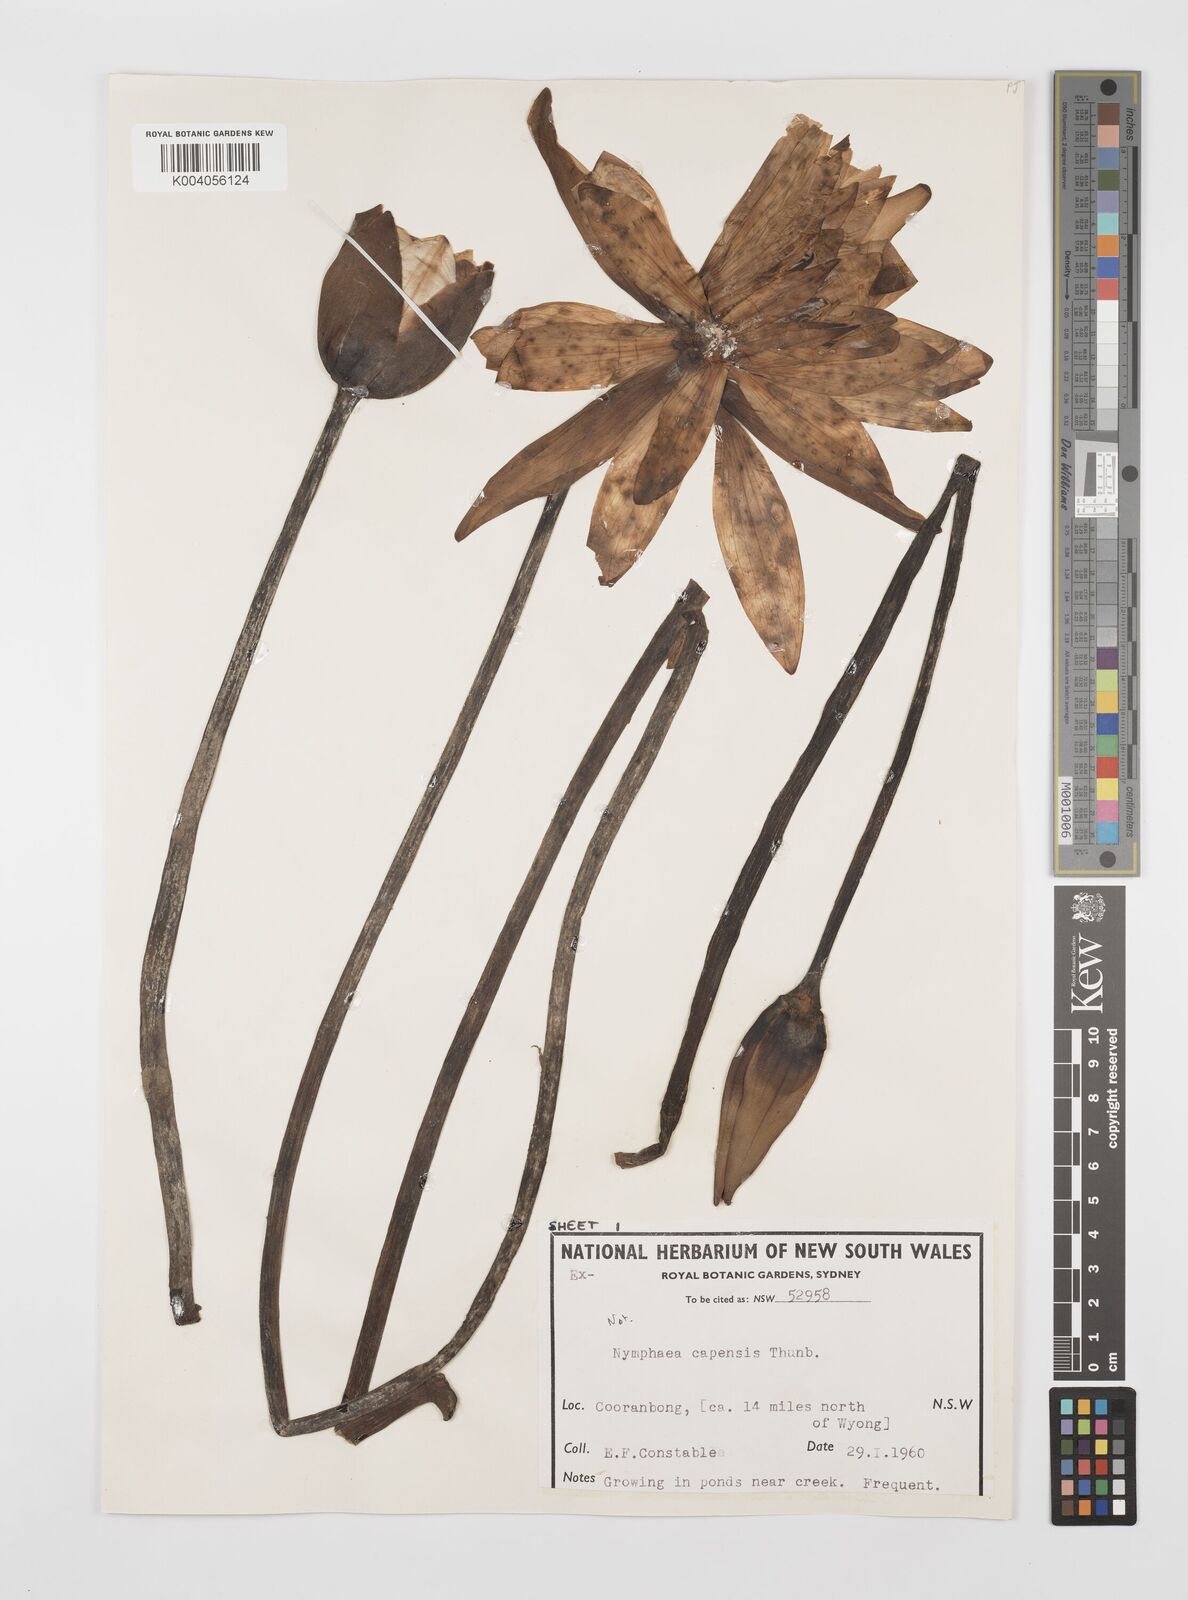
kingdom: Plantae
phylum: Tracheophyta
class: Magnoliopsida
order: Nymphaeales
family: Nymphaeaceae
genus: Nymphaea
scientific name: Nymphaea nouchali
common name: Blue lotus
